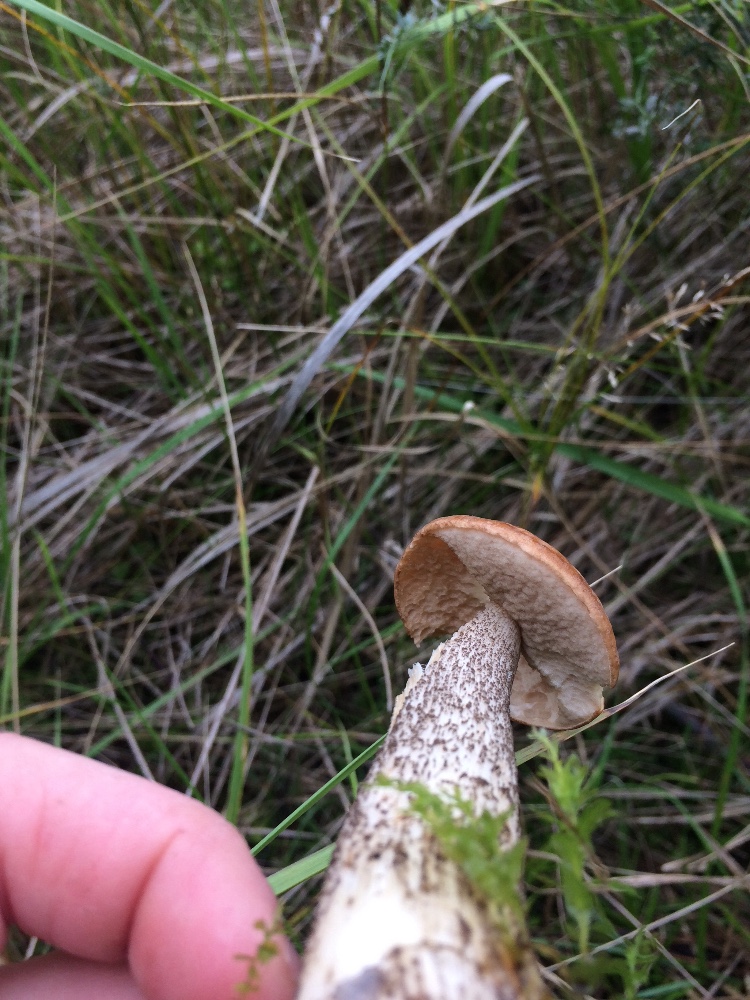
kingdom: Fungi
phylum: Basidiomycota
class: Agaricomycetes
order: Boletales
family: Boletaceae
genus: Leccinum
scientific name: Leccinum scabrum
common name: brun skælrørhat
